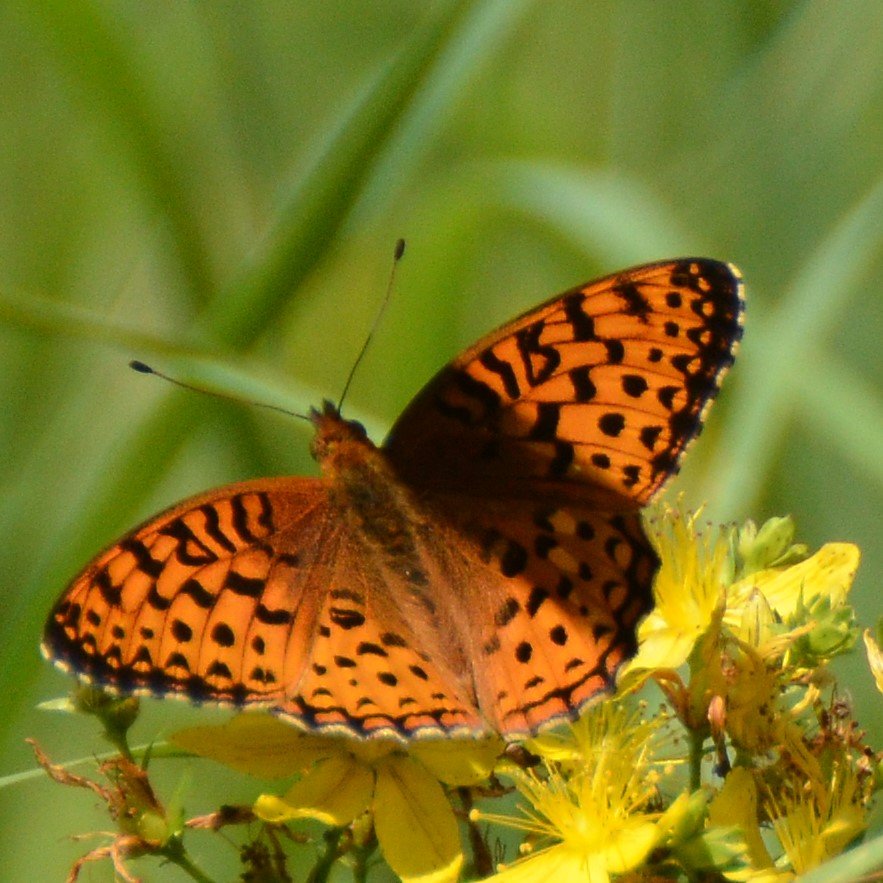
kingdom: Animalia
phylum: Arthropoda
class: Insecta
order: Lepidoptera
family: Nymphalidae
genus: Speyeria
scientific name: Speyeria aphrodite
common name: Aphrodite Fritillary
